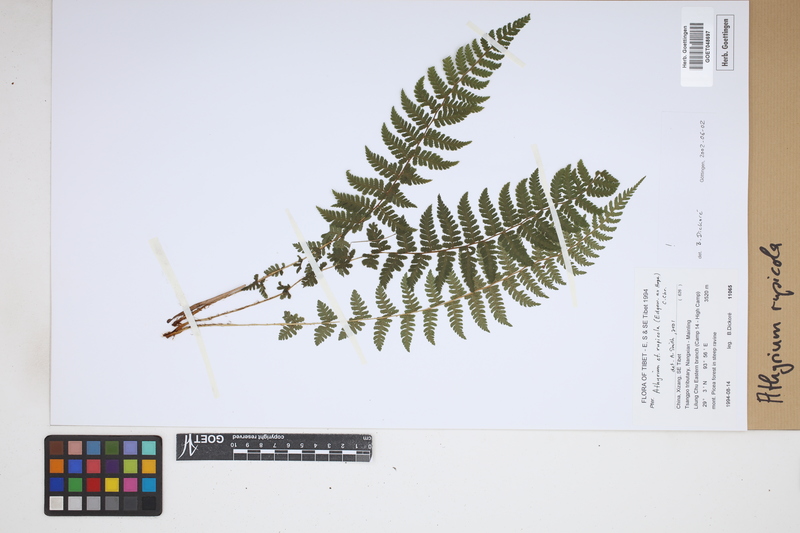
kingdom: Plantae
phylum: Tracheophyta
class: Polypodiopsida
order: Polypodiales
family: Athyriaceae
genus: Athyrium
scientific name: Athyrium rupicola
